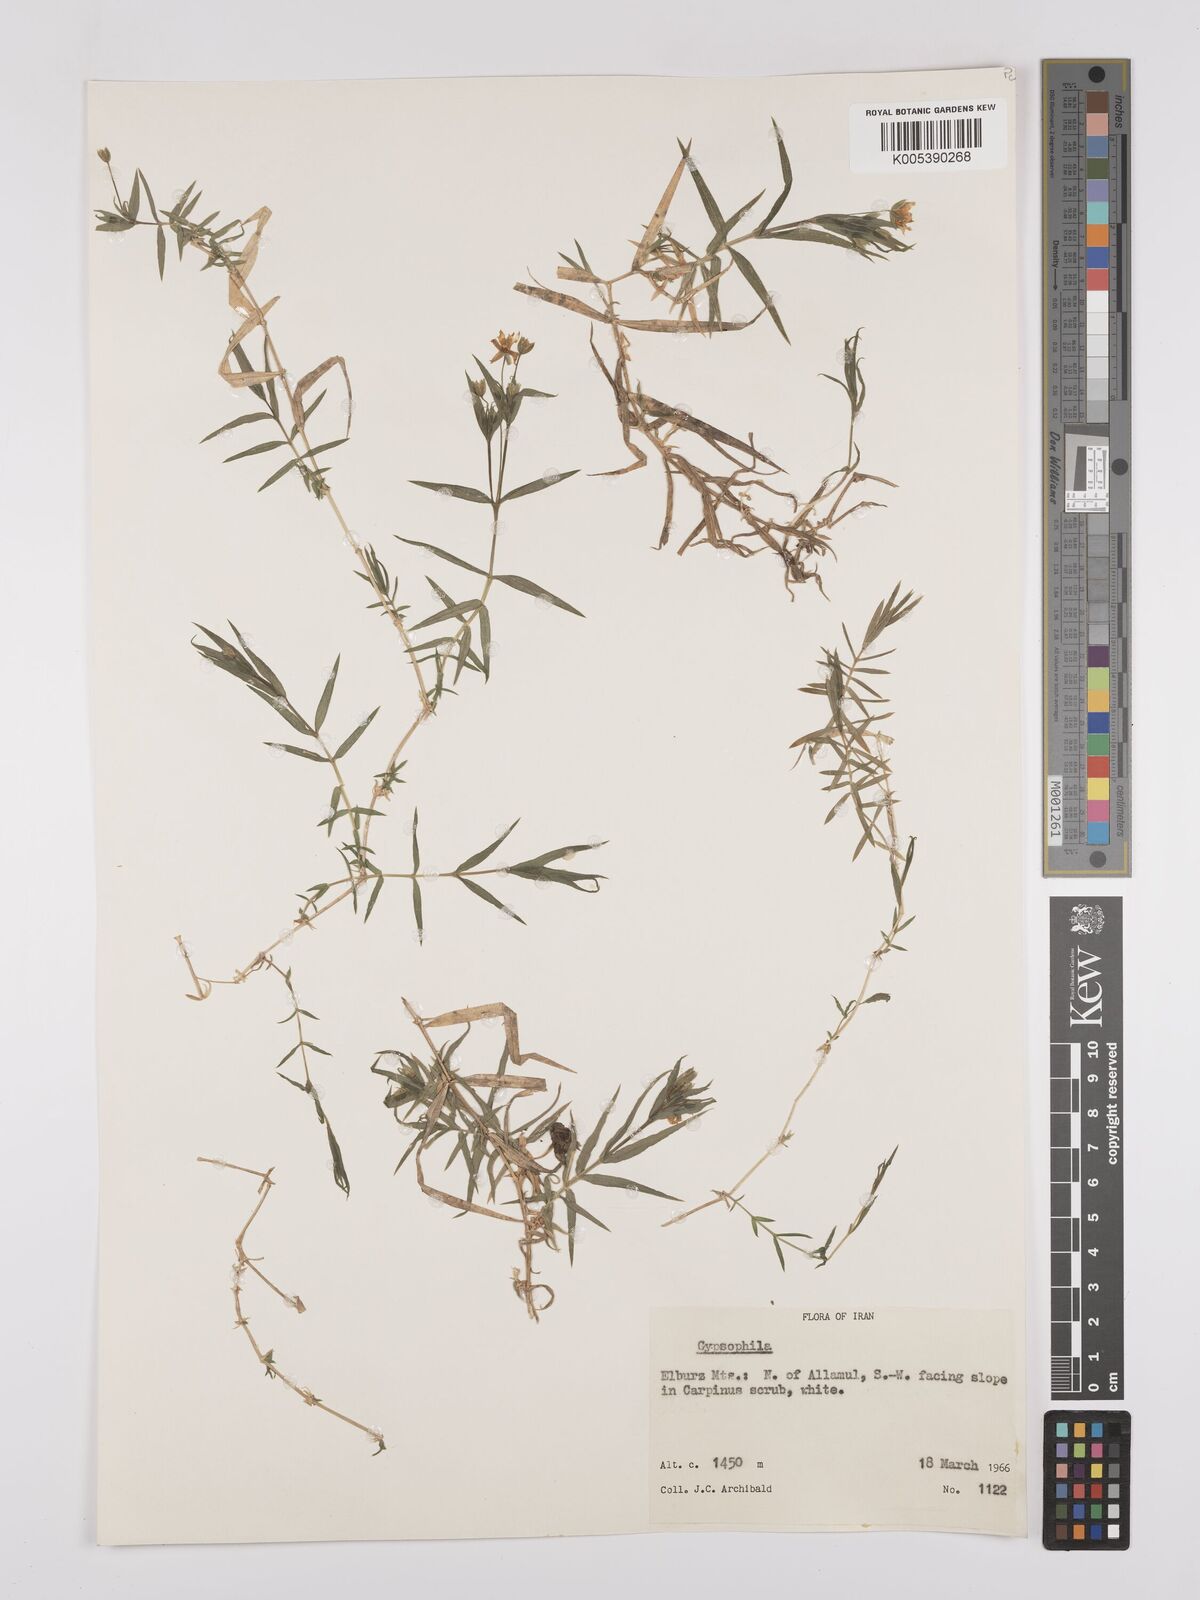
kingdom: Plantae
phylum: Tracheophyta
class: Magnoliopsida
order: Caryophyllales
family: Caryophyllaceae
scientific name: Caryophyllaceae
